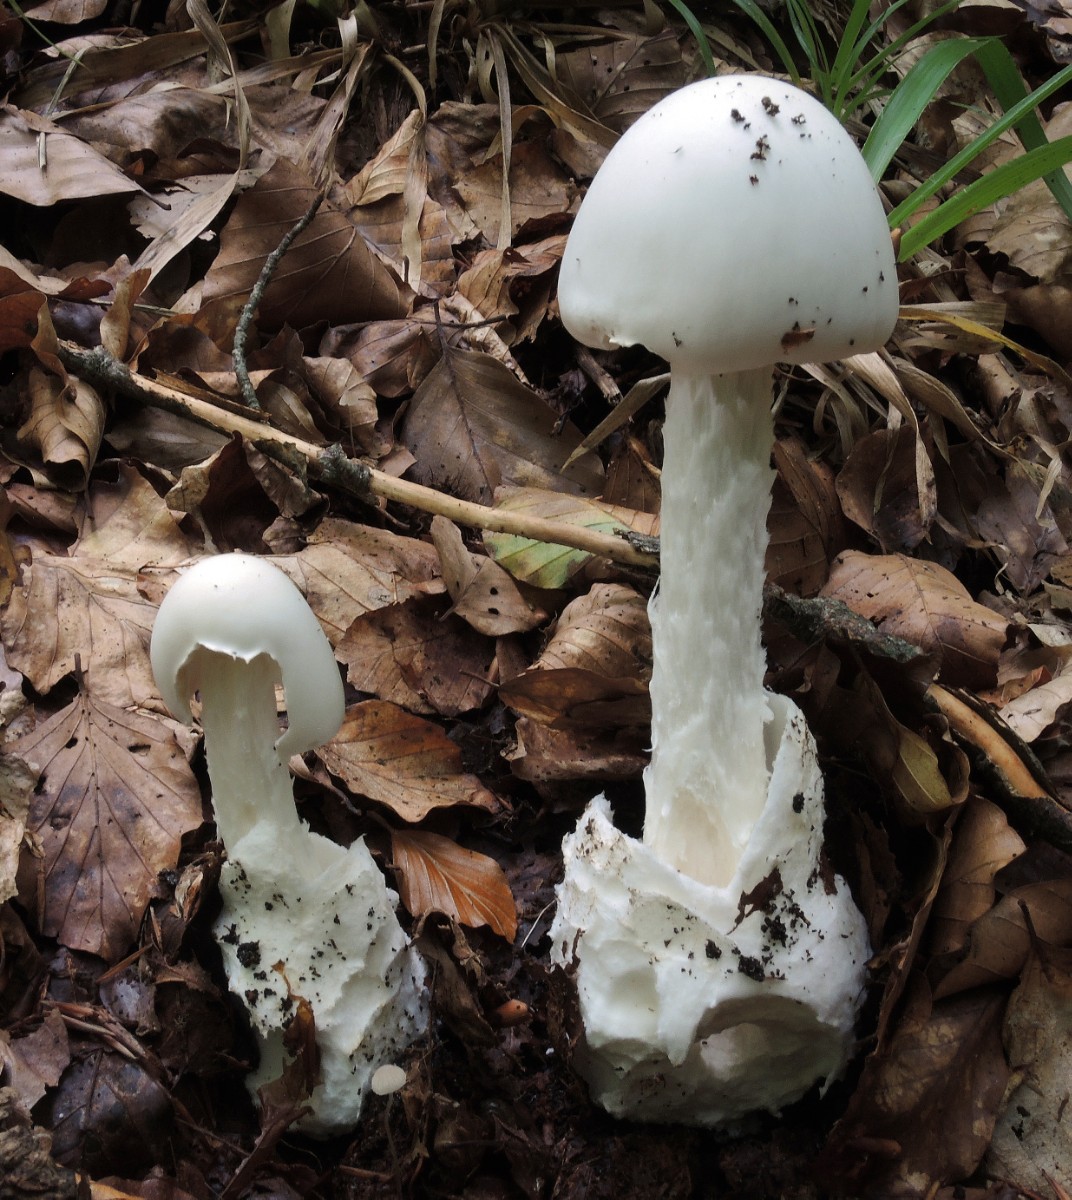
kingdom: Fungi
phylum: Basidiomycota
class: Agaricomycetes
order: Agaricales
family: Amanitaceae
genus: Amanita
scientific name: Amanita virosa
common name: snehvid fluesvamp
